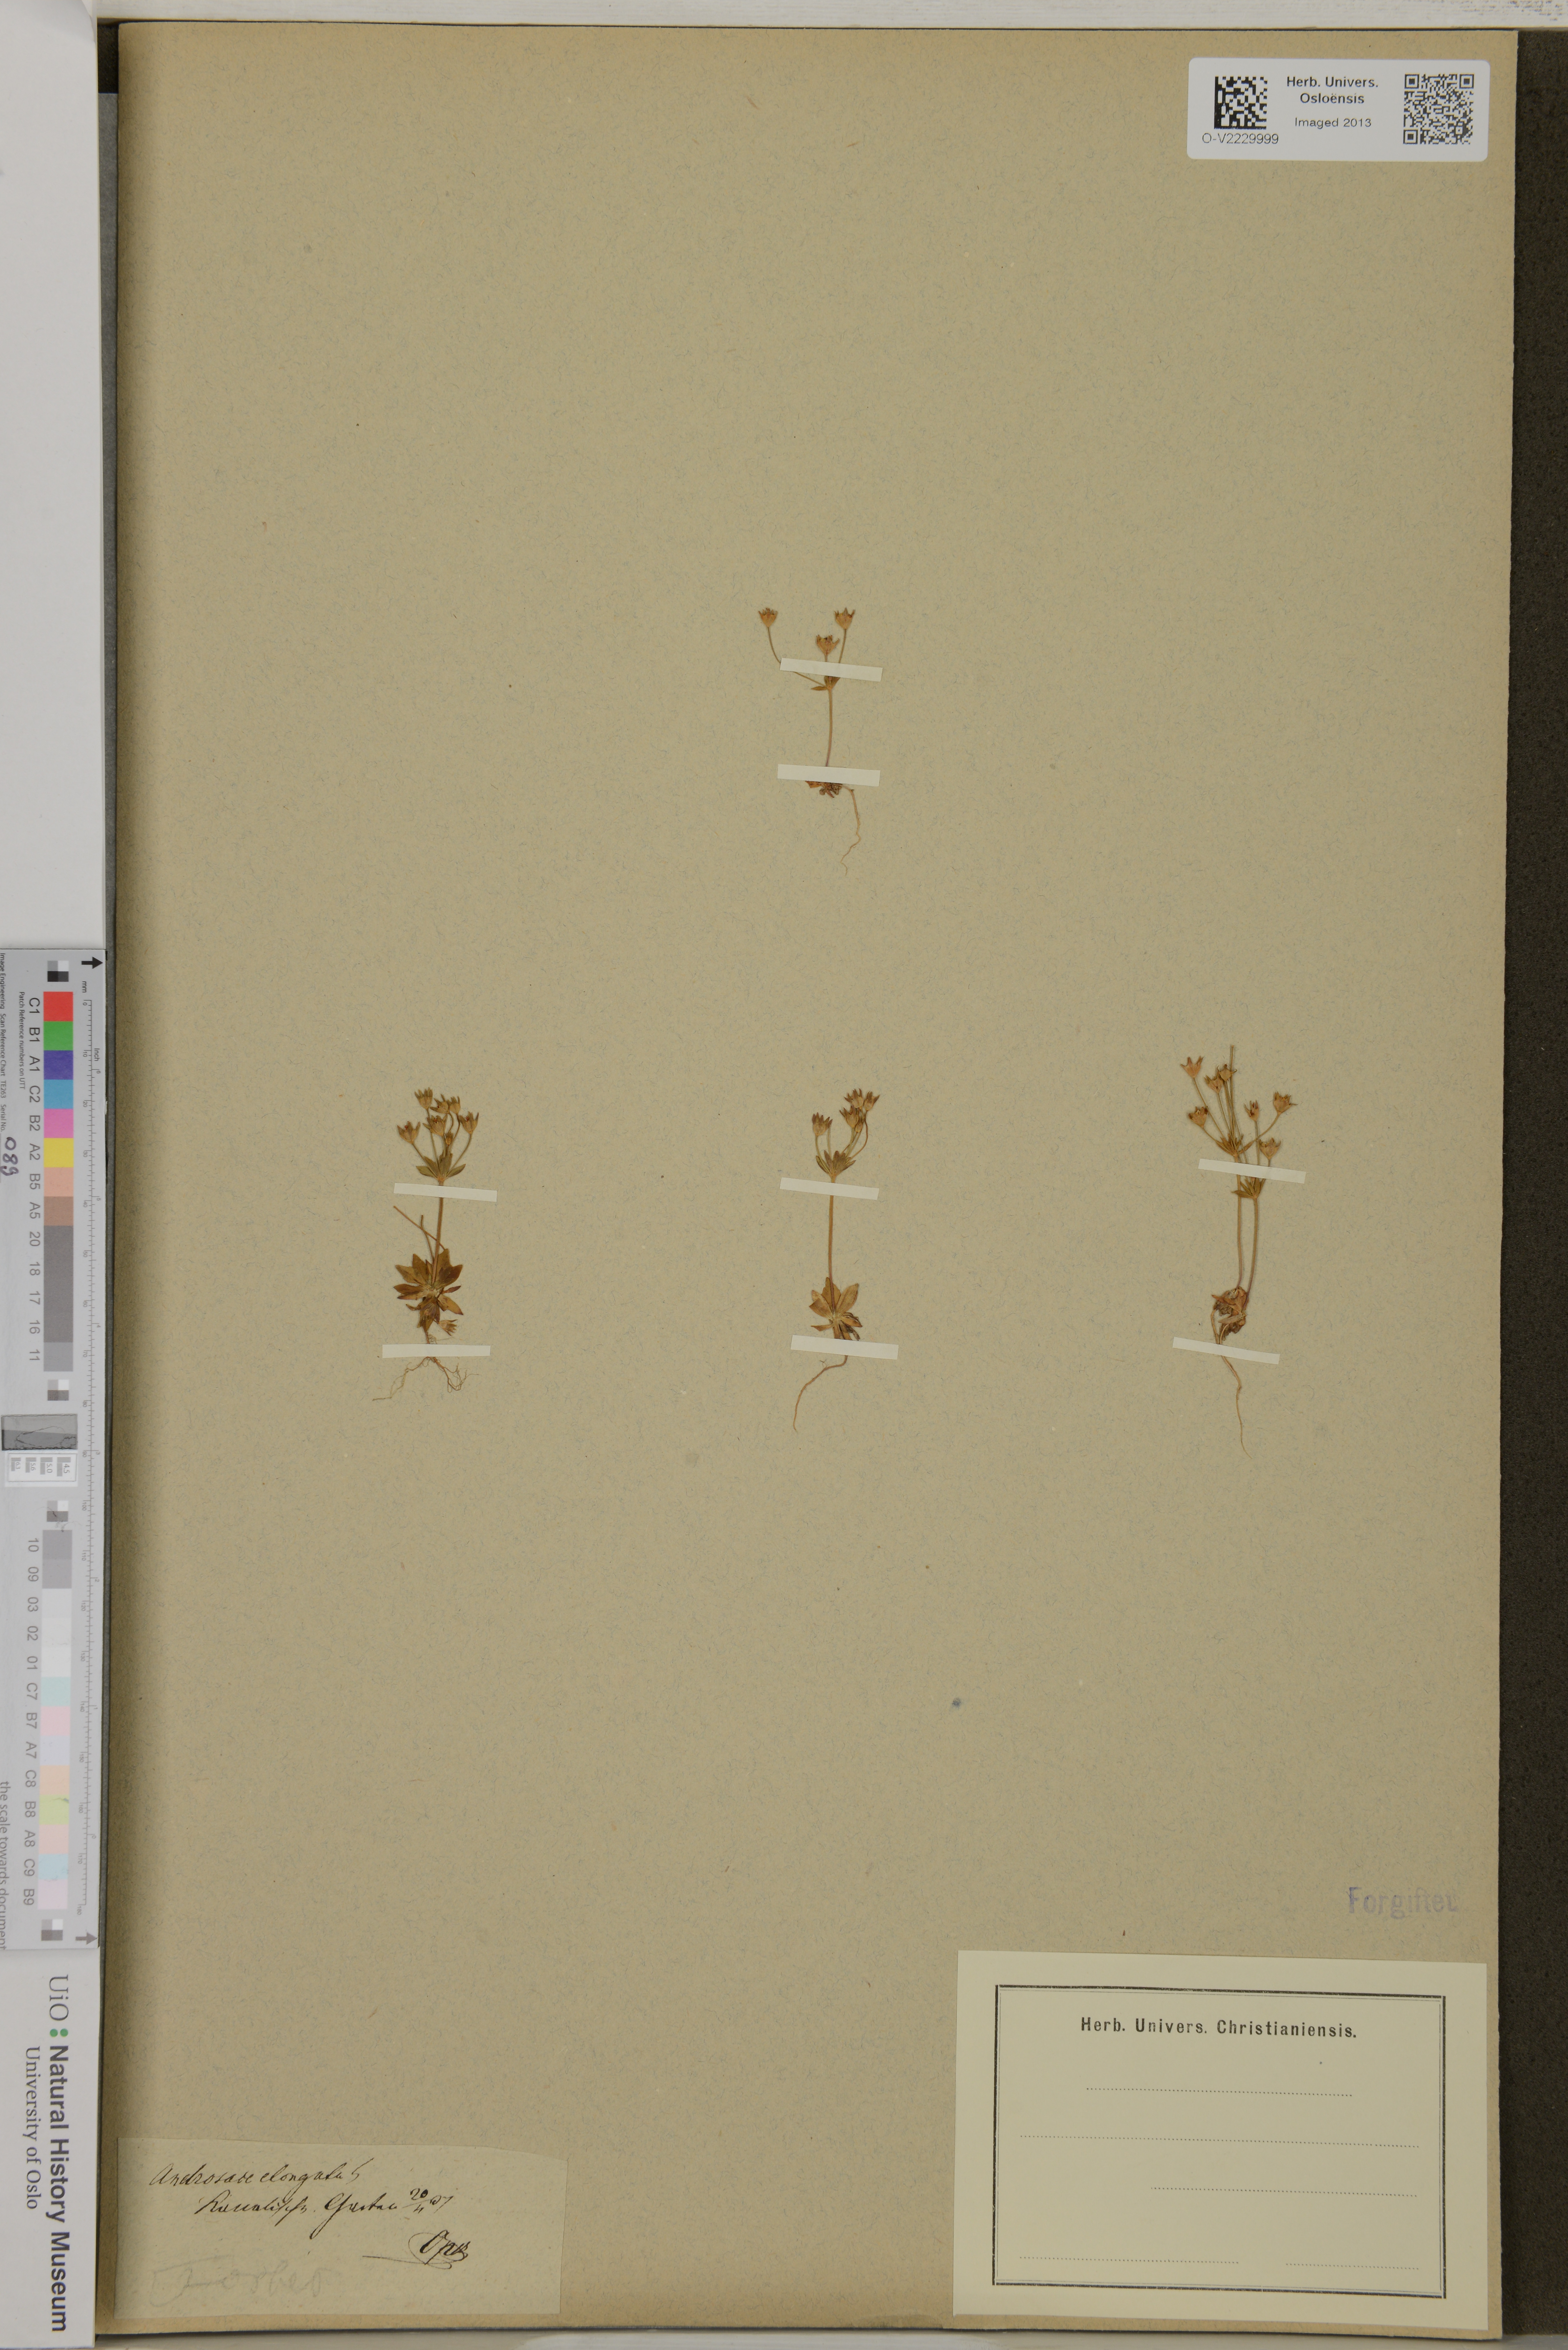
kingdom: Plantae
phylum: Tracheophyta
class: Magnoliopsida
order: Ericales
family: Primulaceae
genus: Androsace
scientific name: Androsace elongata
